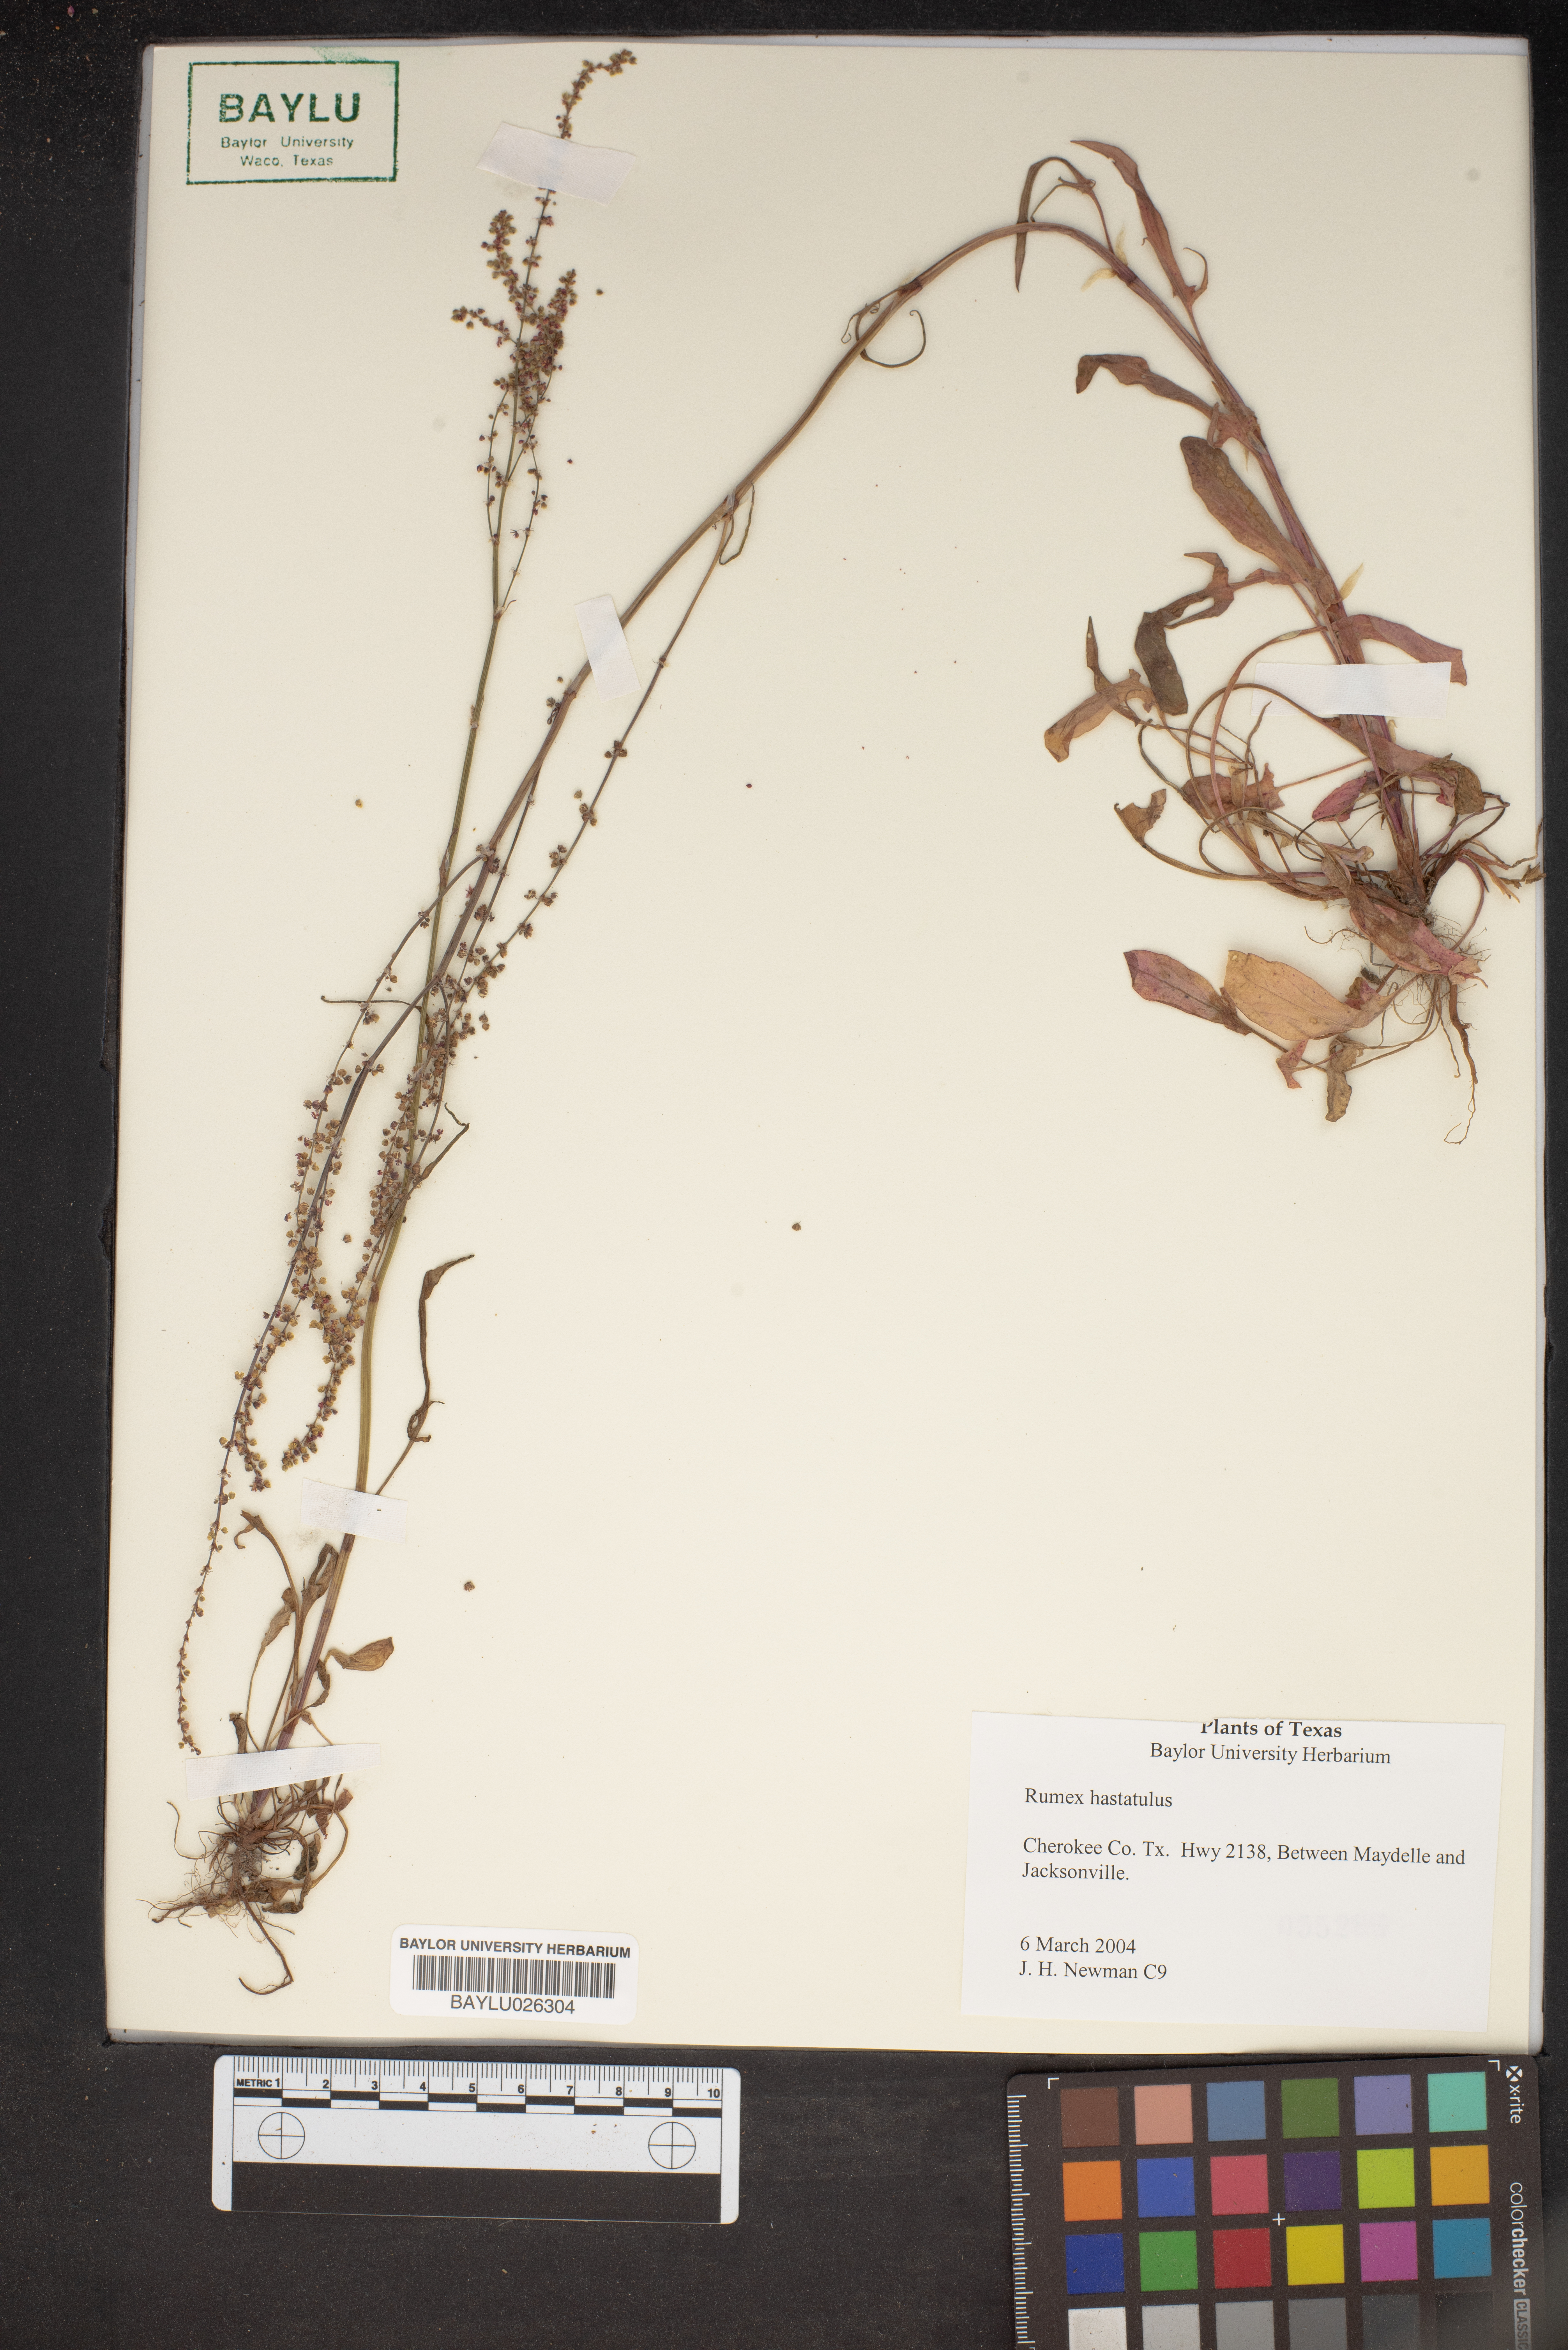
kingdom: Plantae
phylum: Tracheophyta
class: Magnoliopsida
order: Caryophyllales
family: Polygonaceae
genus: Rumex
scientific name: Rumex hastatulus
